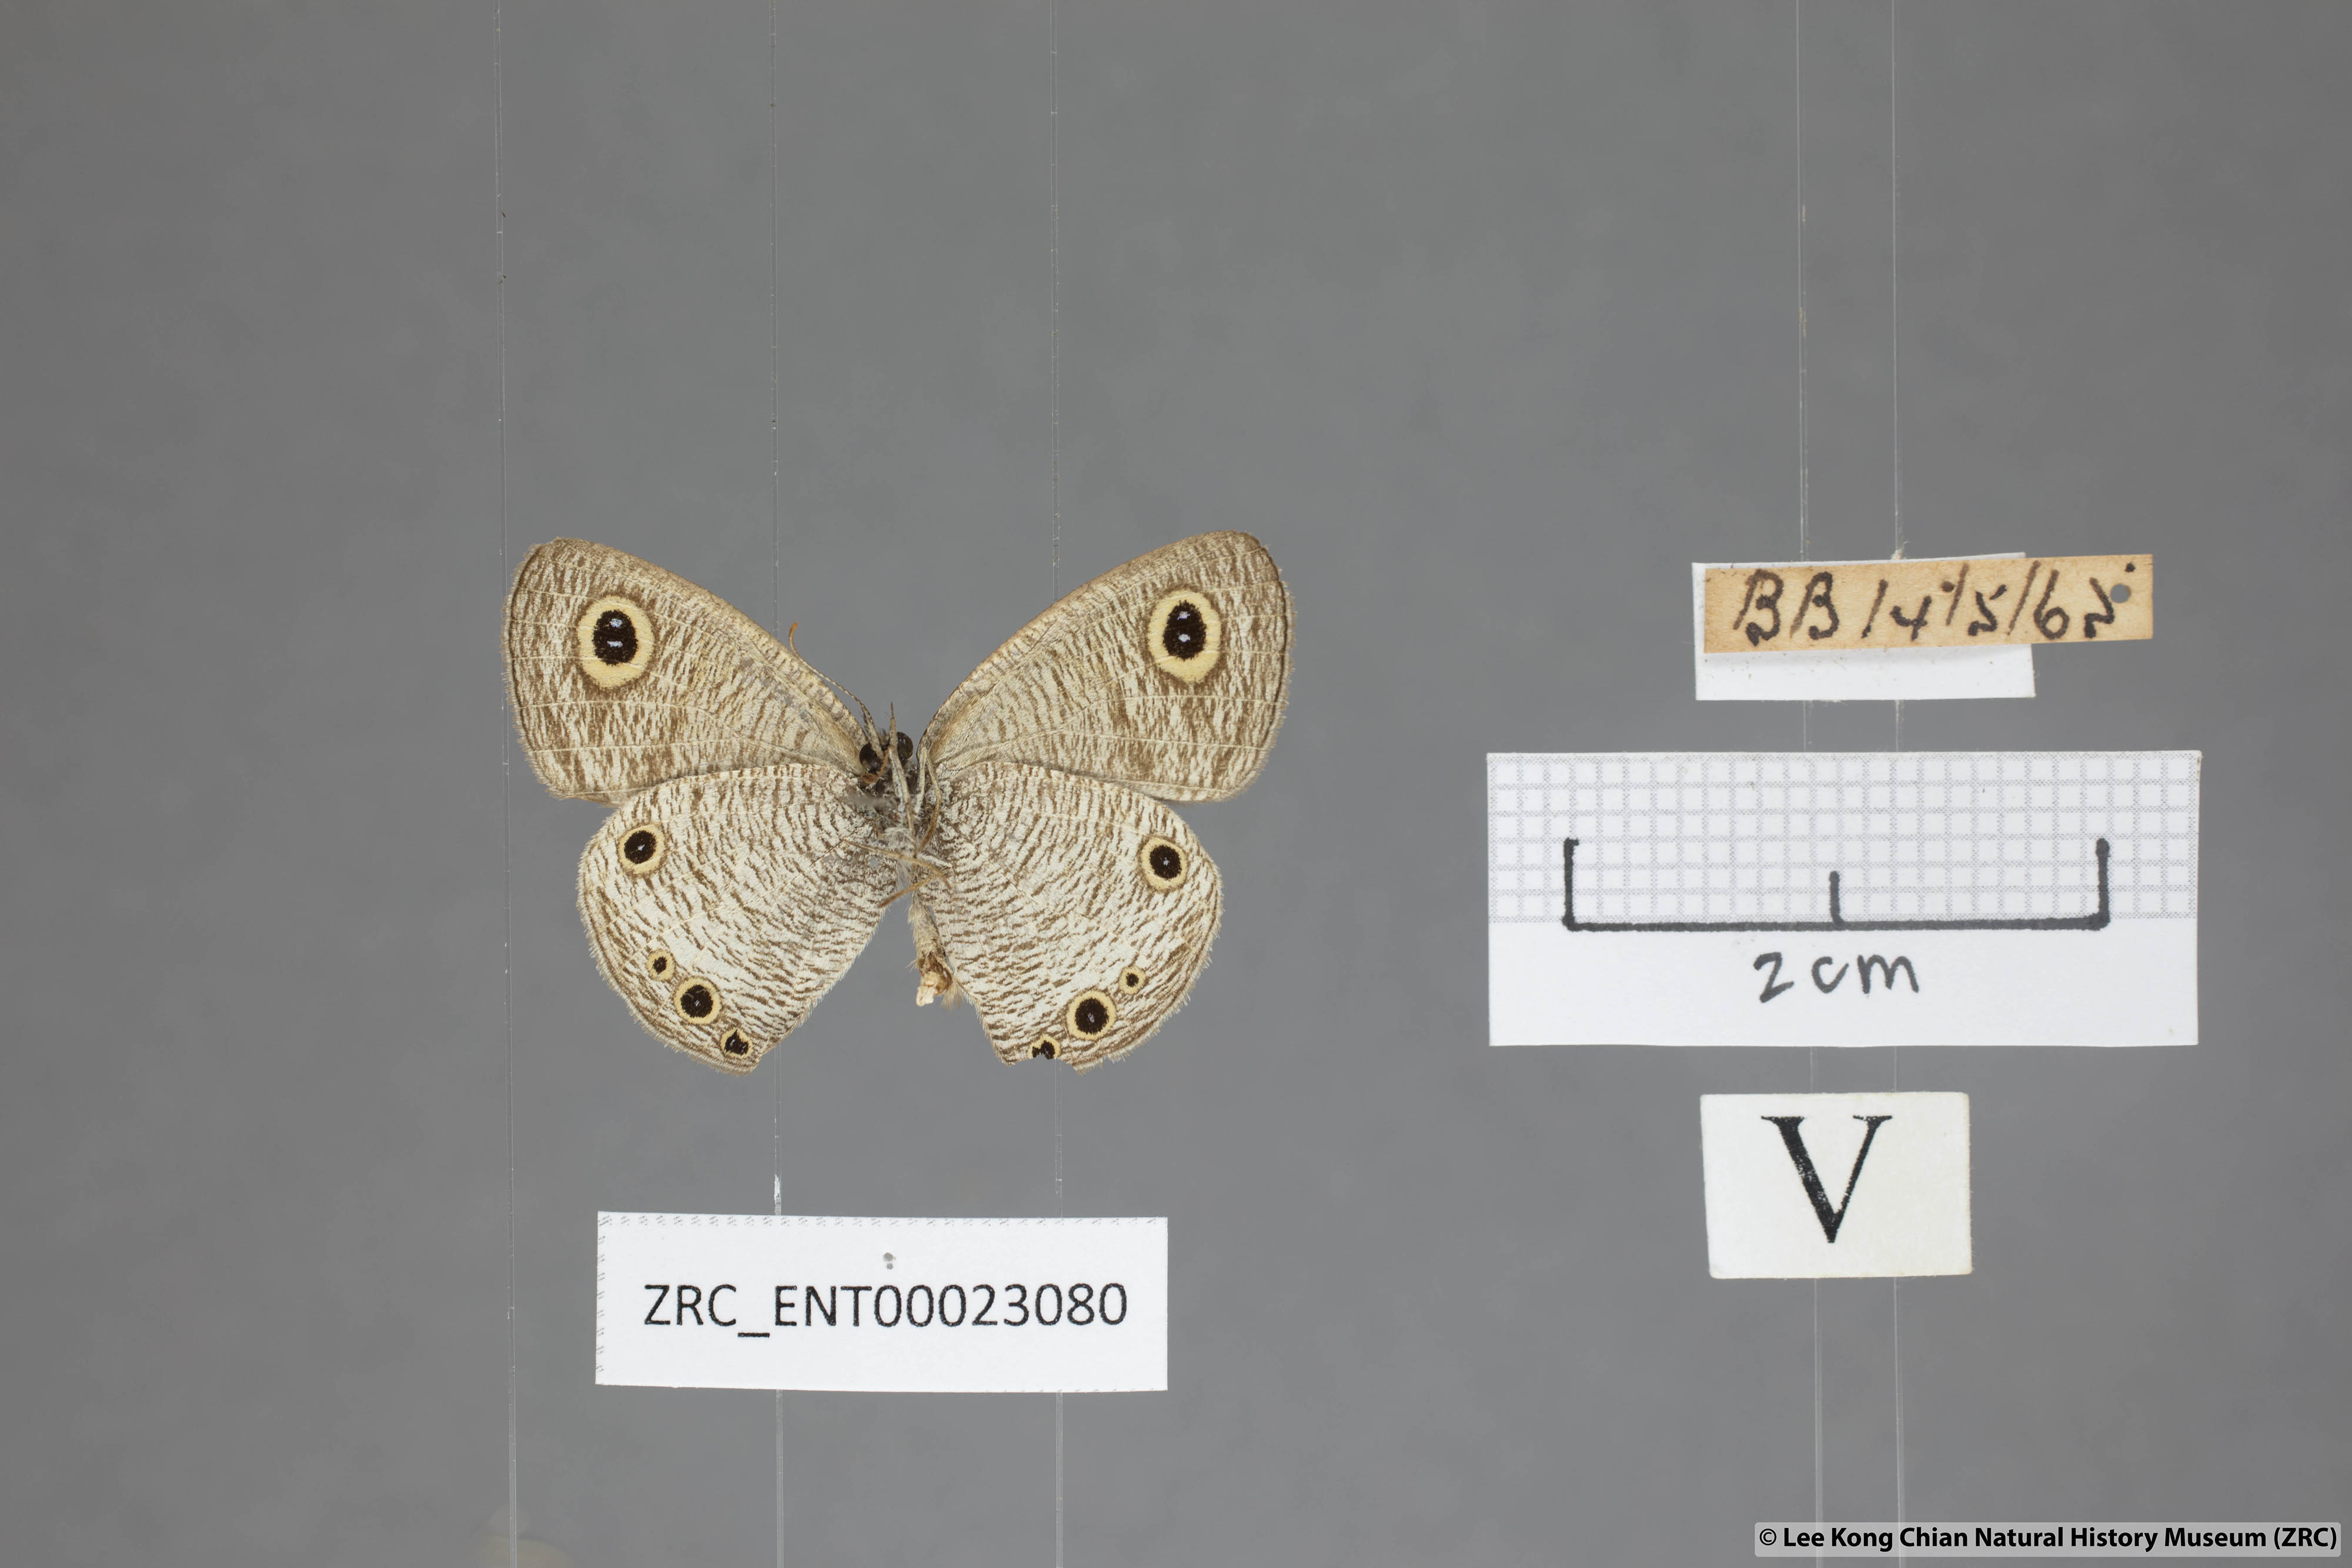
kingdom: Animalia
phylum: Arthropoda
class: Insecta
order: Lepidoptera
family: Nymphalidae
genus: Ypthima
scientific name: Ypthima huebneri
